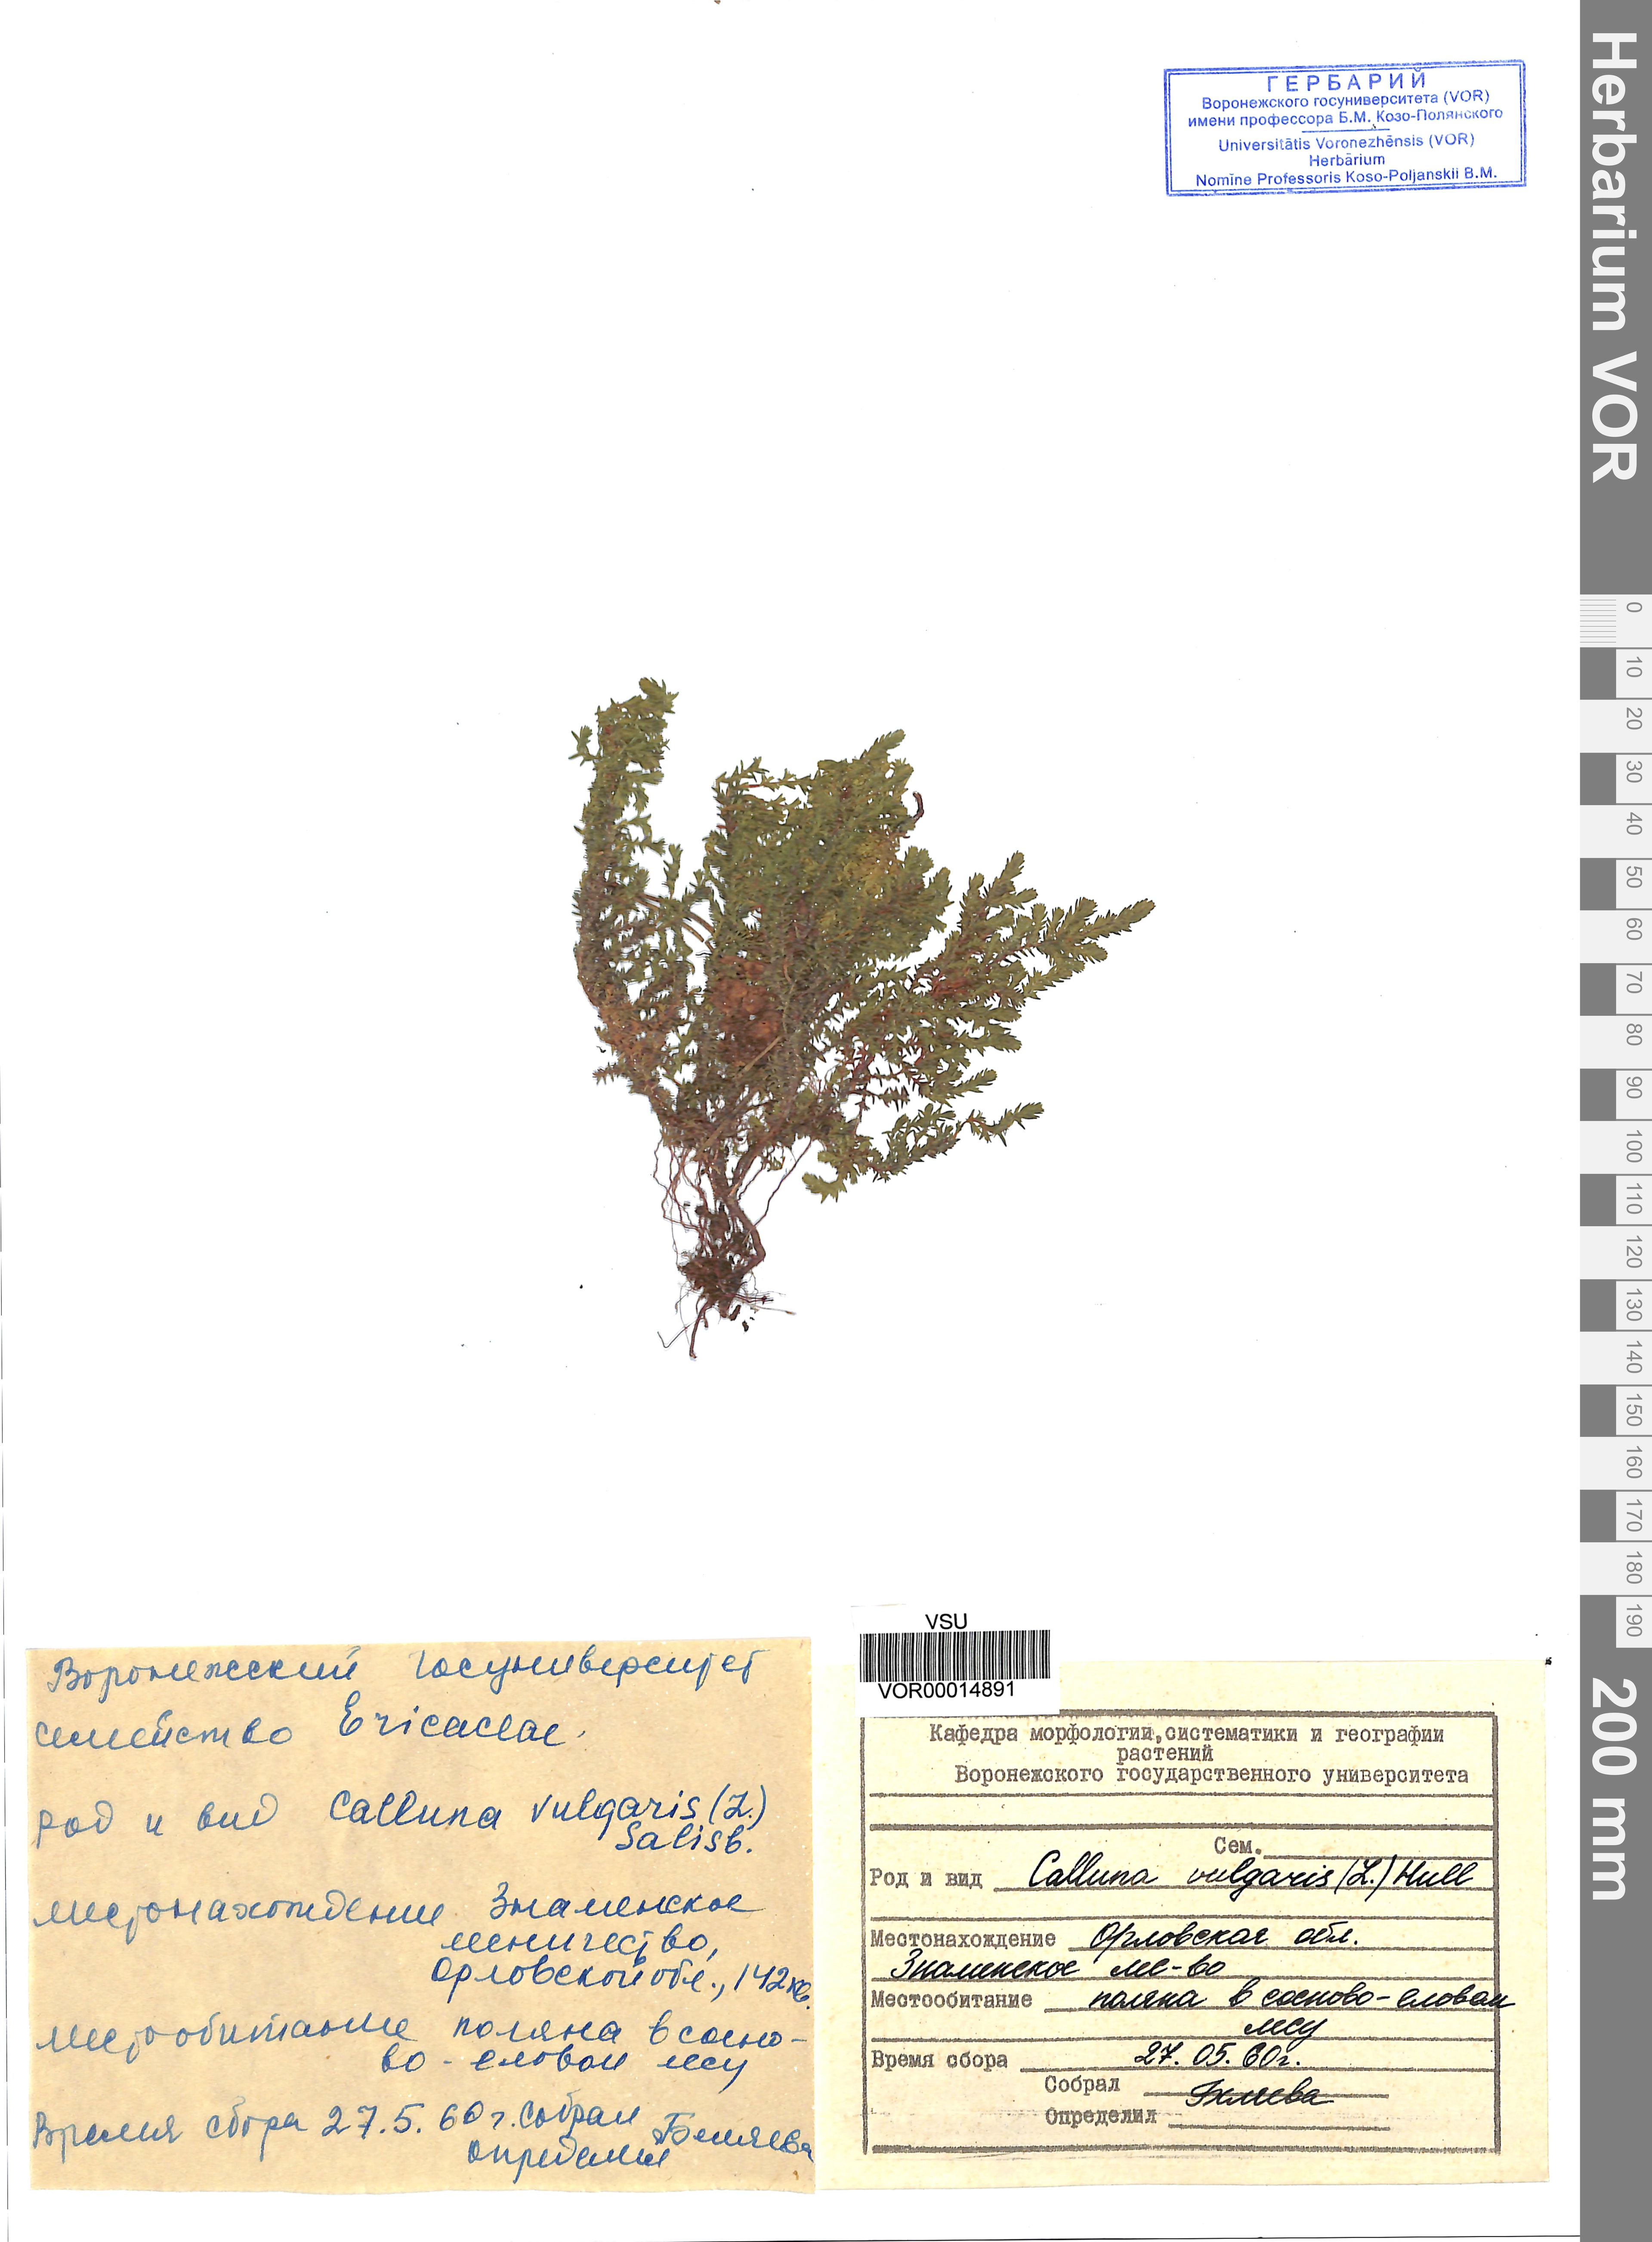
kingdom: Plantae
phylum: Tracheophyta
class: Magnoliopsida
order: Ericales
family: Ericaceae
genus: Calluna
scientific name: Calluna vulgaris
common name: Heather
